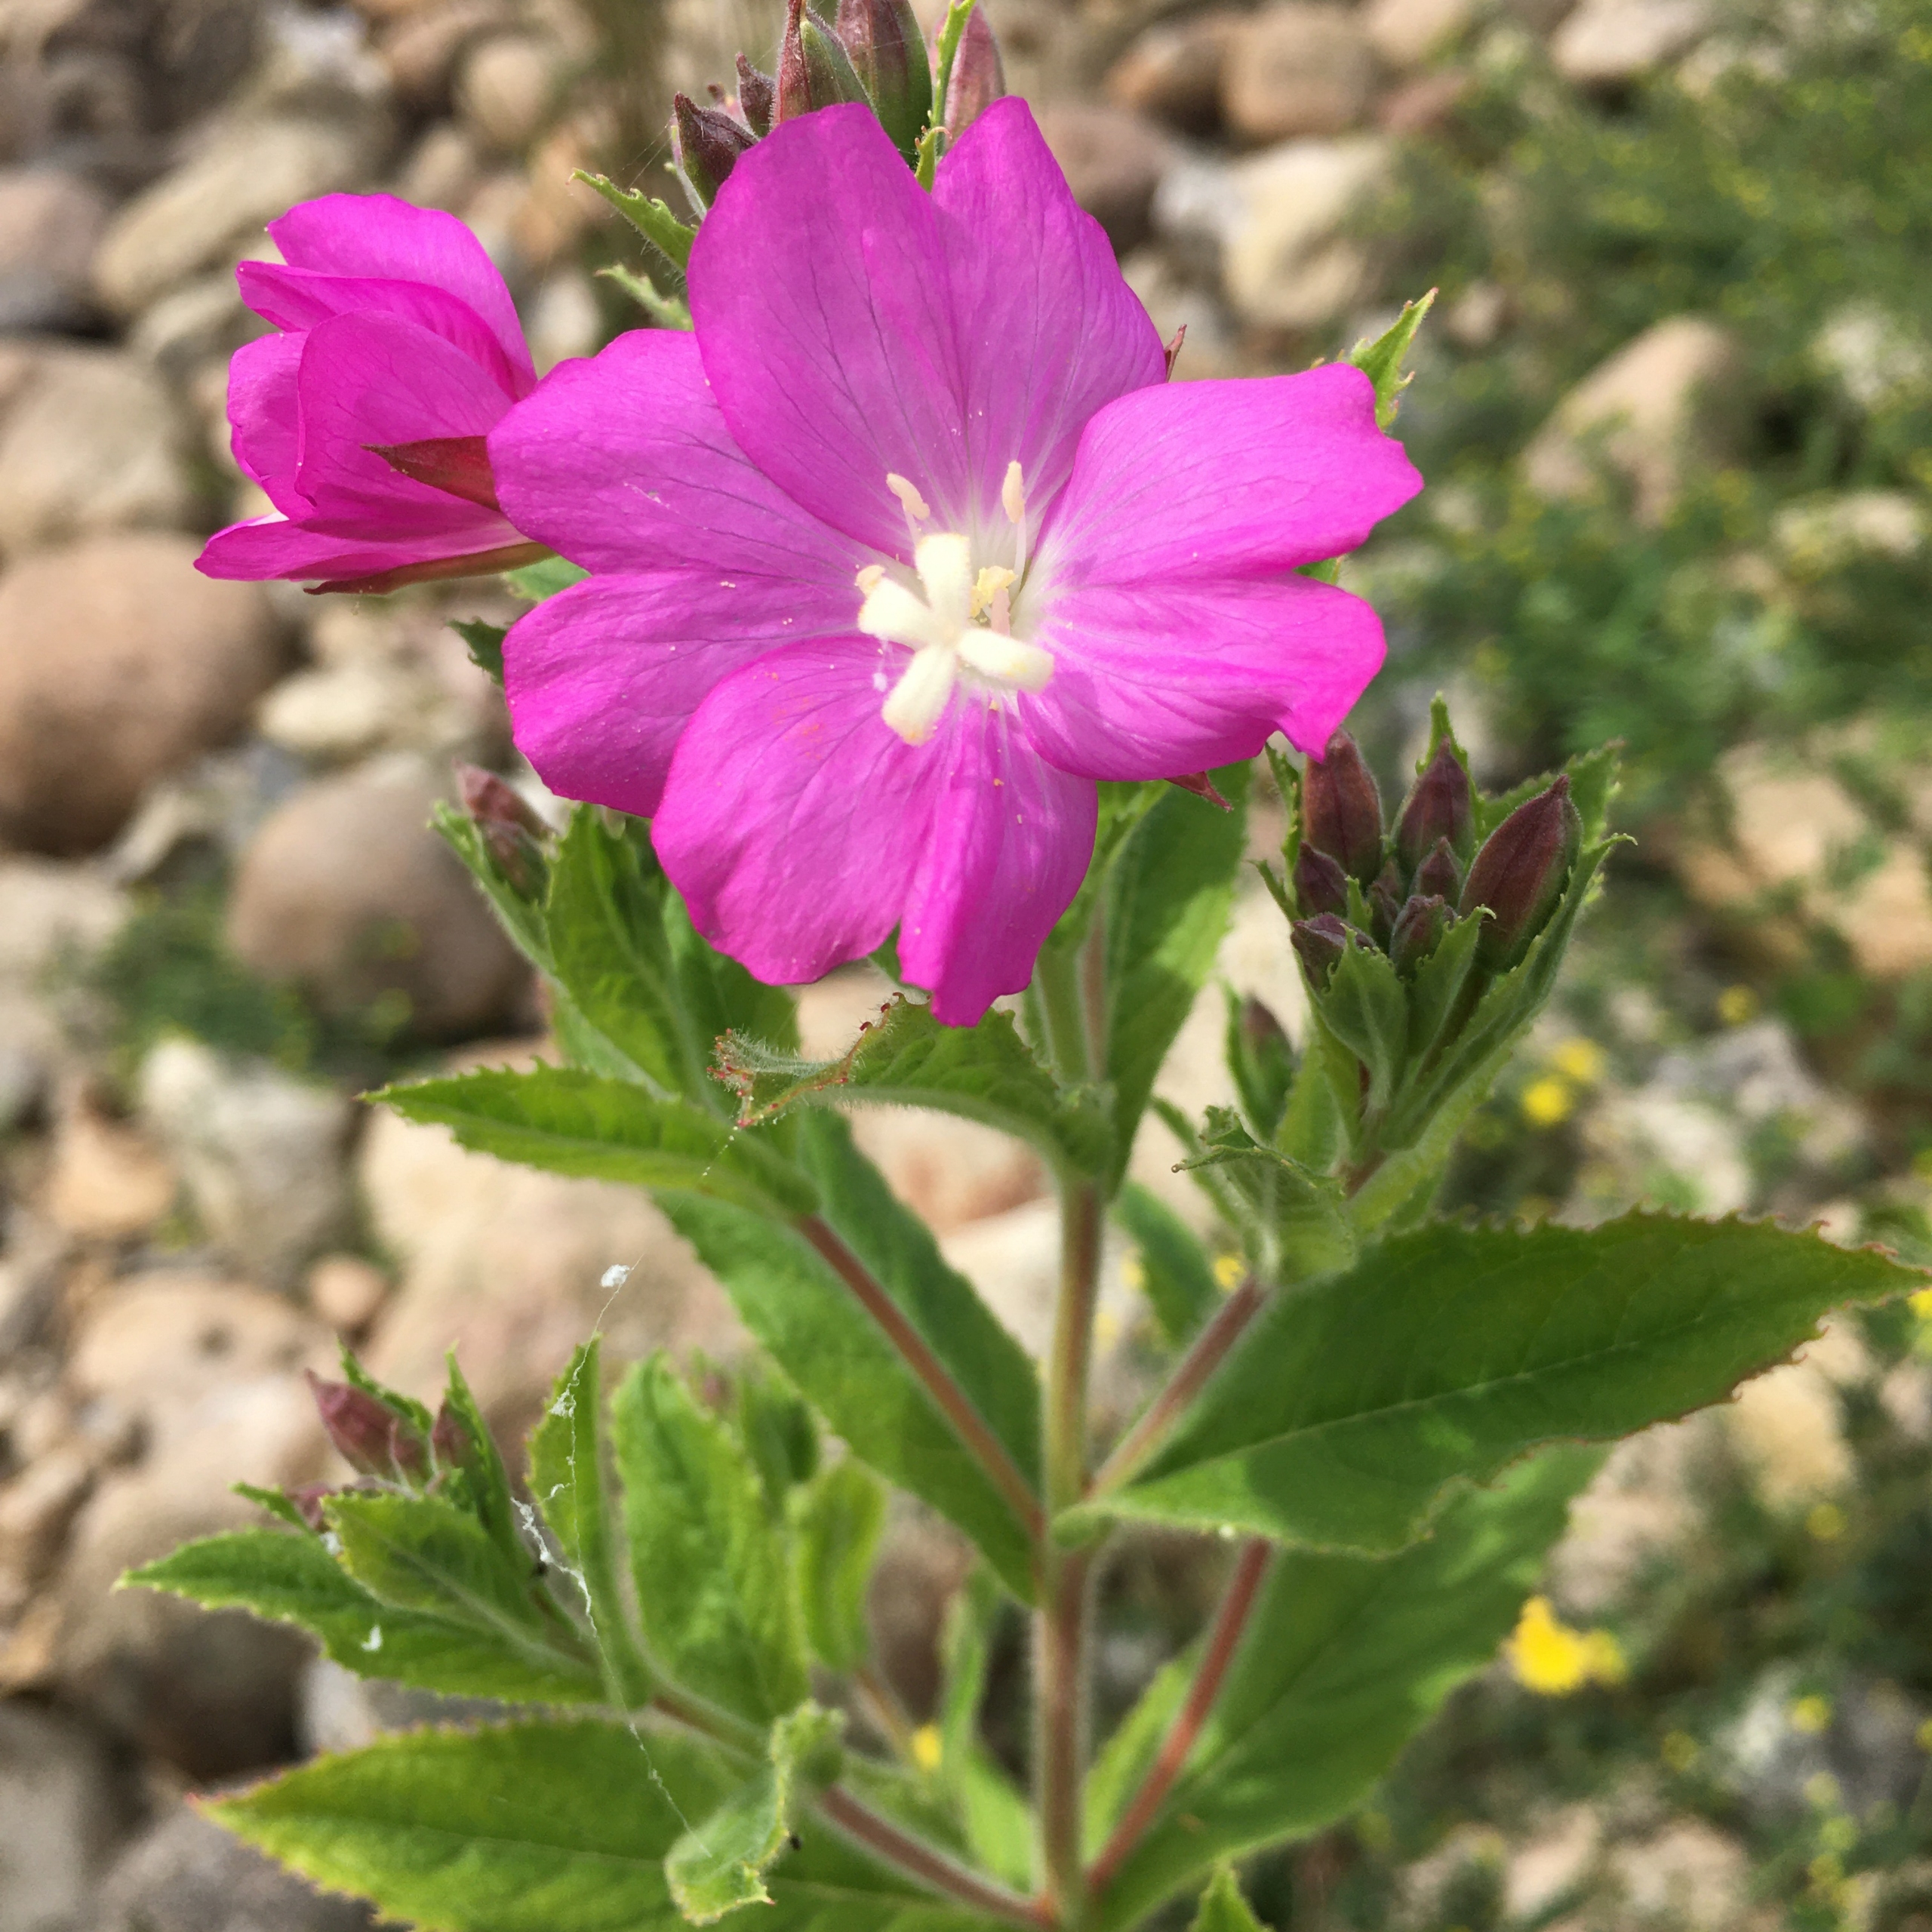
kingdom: Plantae
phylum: Tracheophyta
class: Magnoliopsida
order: Myrtales
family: Onagraceae
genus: Epilobium
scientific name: Epilobium hirsutum
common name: Lådden dueurt
